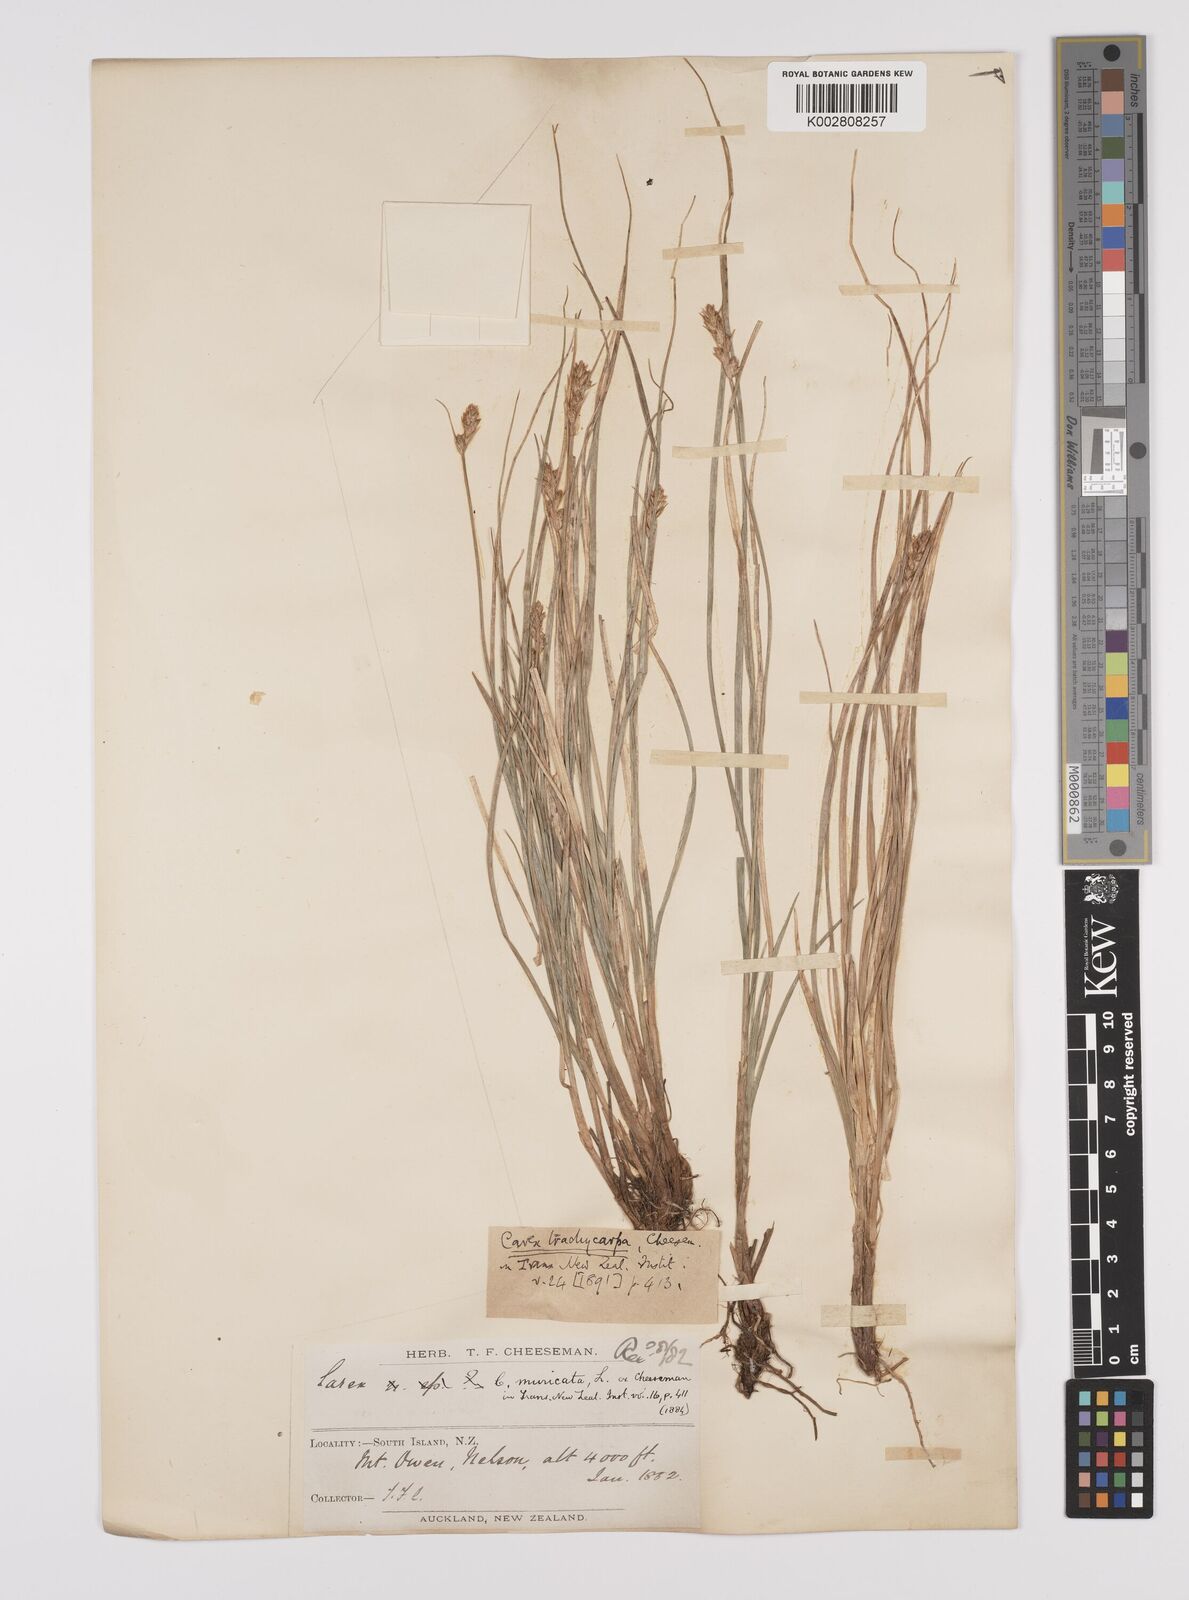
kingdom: Plantae
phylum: Tracheophyta
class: Liliopsida
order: Poales
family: Cyperaceae
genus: Carex
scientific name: Carex trachycarpa
